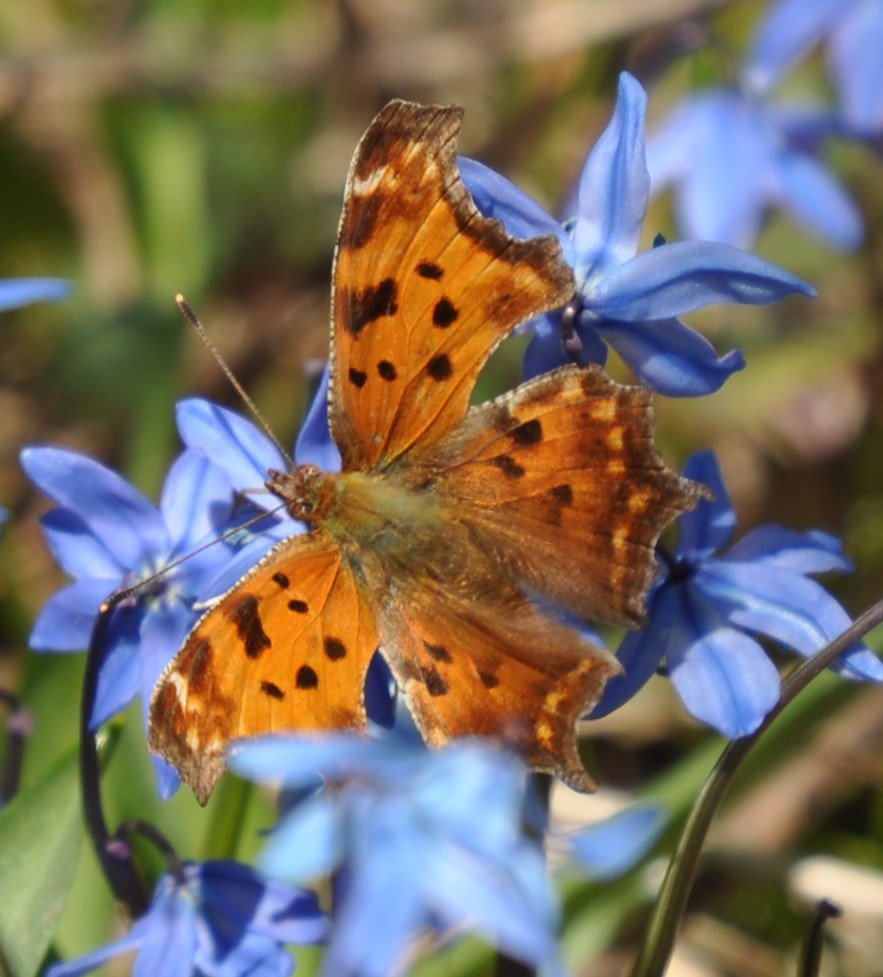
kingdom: Animalia
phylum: Arthropoda
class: Insecta
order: Lepidoptera
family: Nymphalidae
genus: Polygonia
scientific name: Polygonia comma
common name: Eastern Comma
